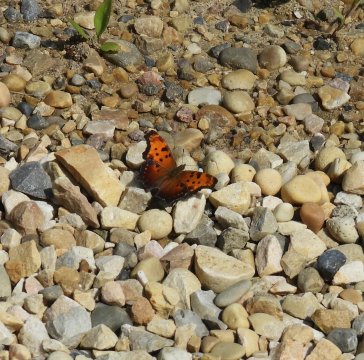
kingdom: Animalia
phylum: Arthropoda
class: Insecta
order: Lepidoptera
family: Nymphalidae
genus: Polygonia
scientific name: Polygonia progne
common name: Gray Comma
